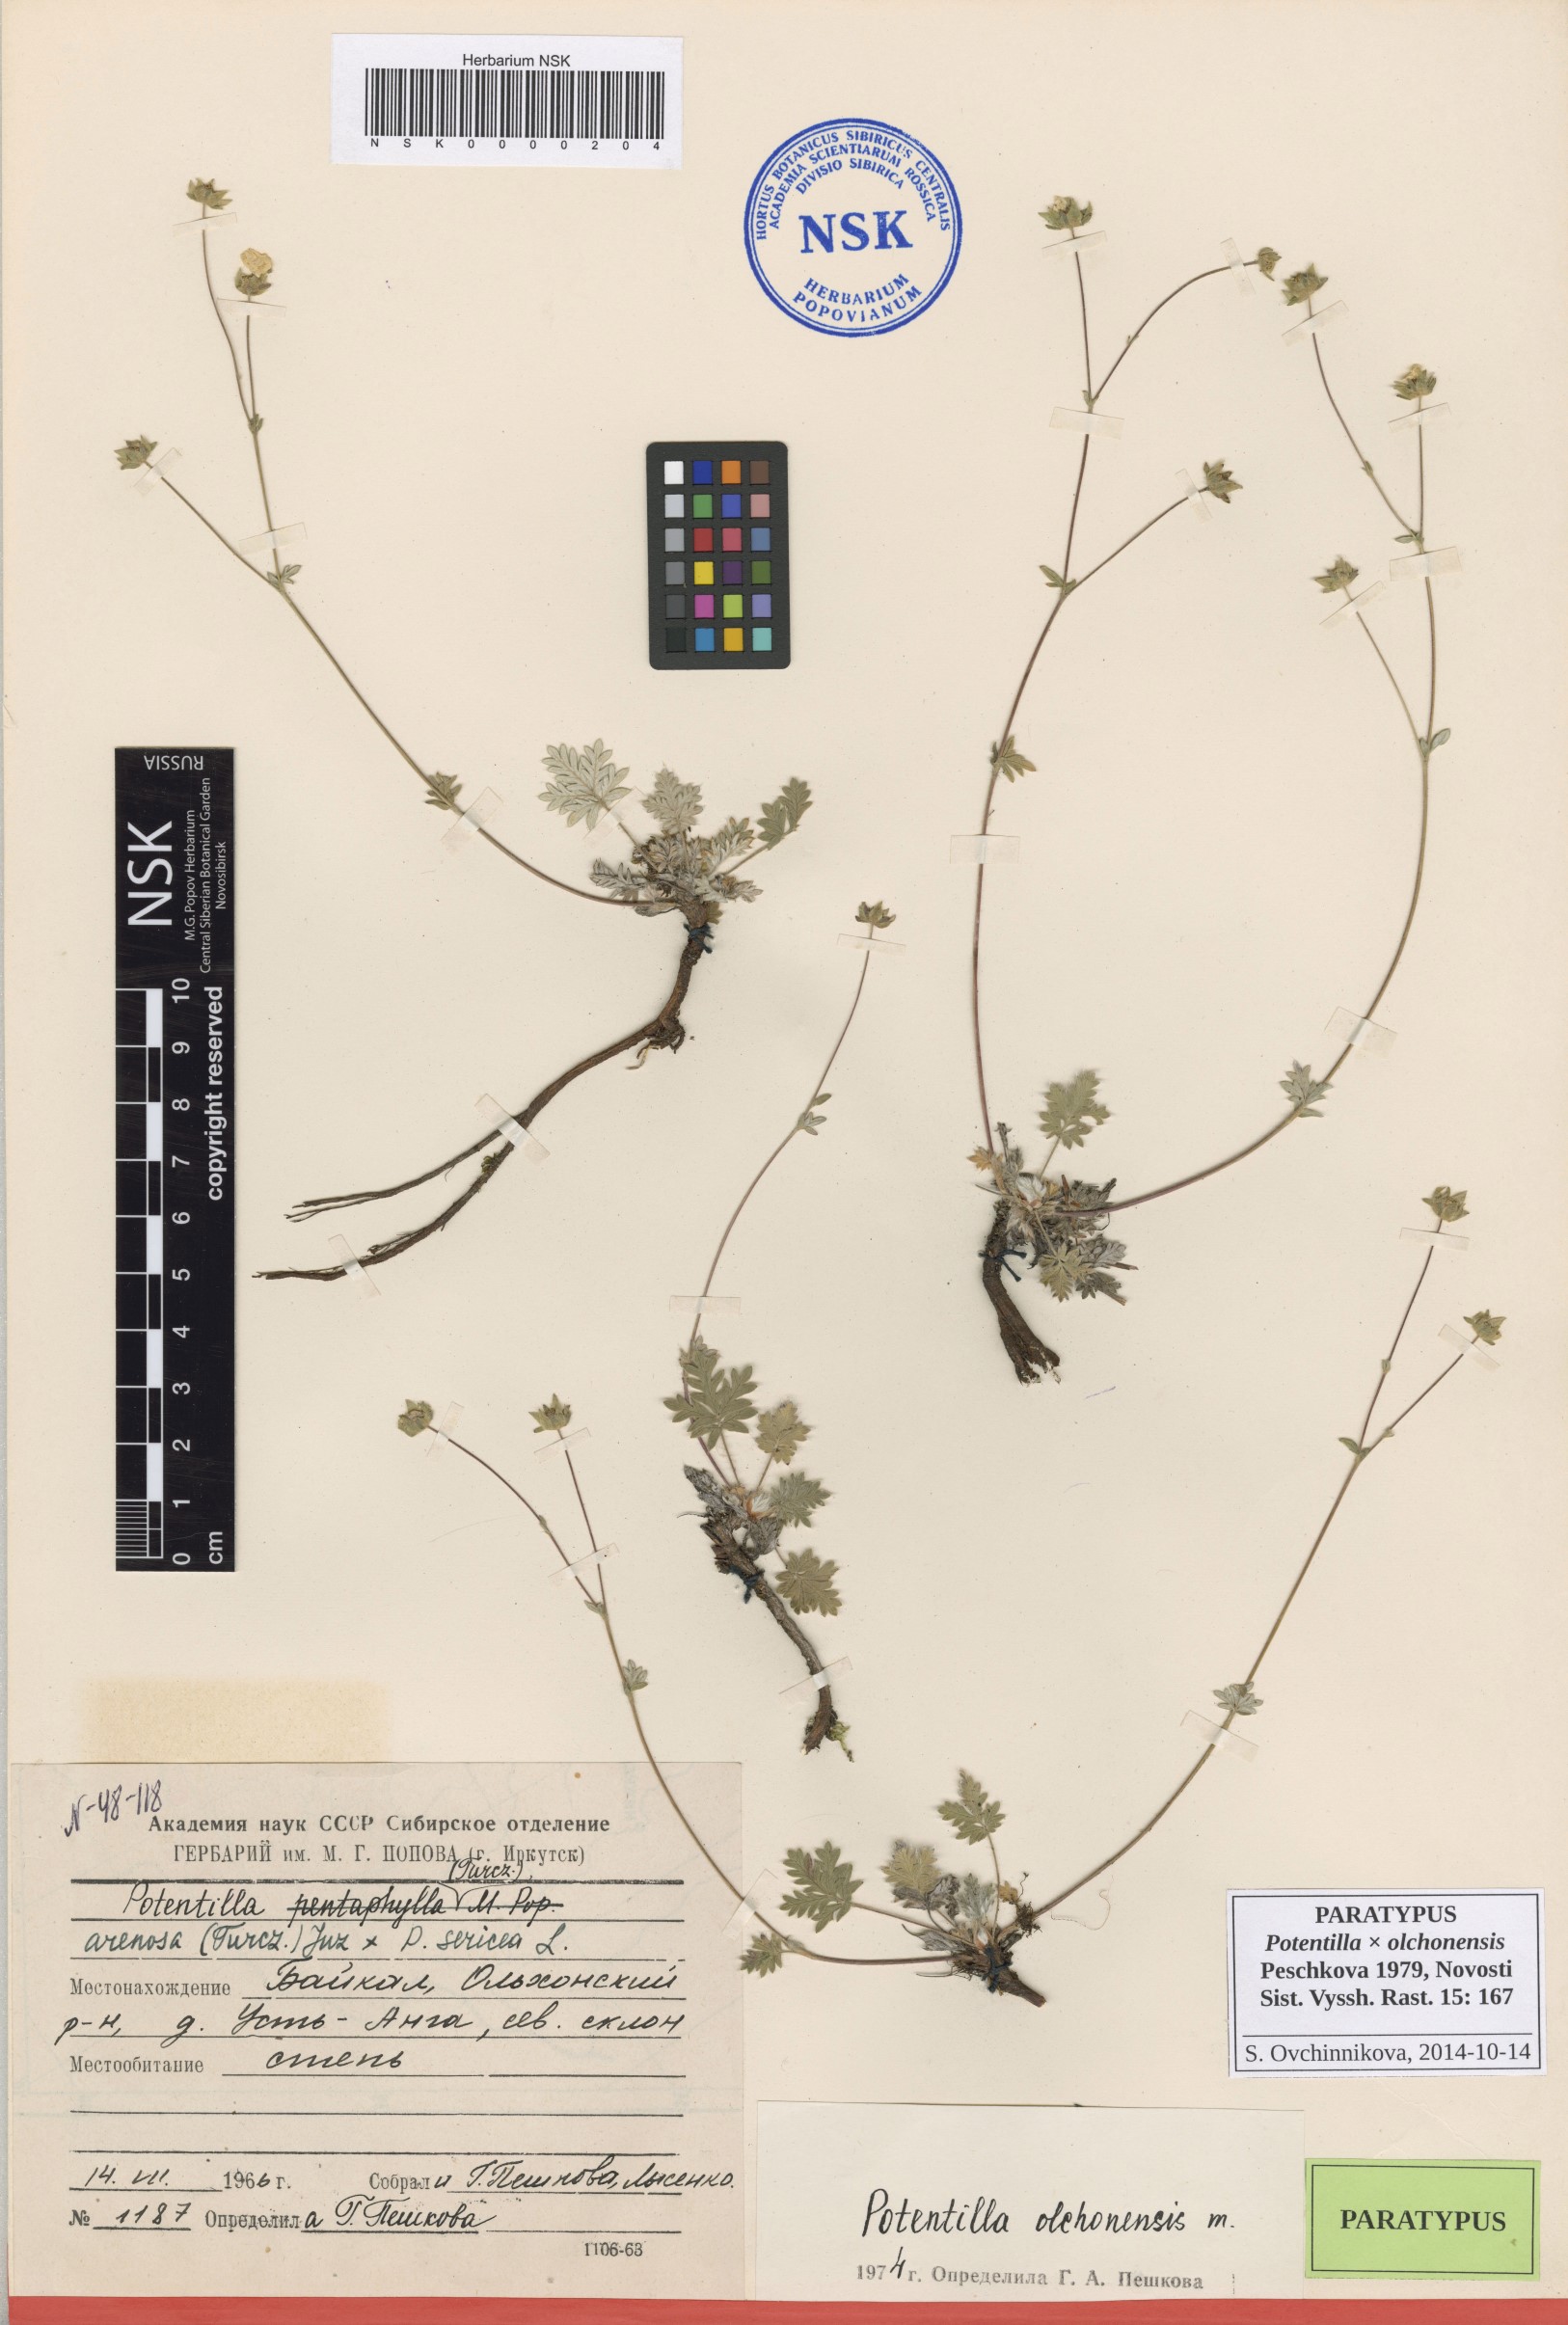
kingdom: Plantae
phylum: Tracheophyta
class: Magnoliopsida
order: Rosales
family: Rosaceae
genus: Potentilla
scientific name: Potentilla olchonensis
